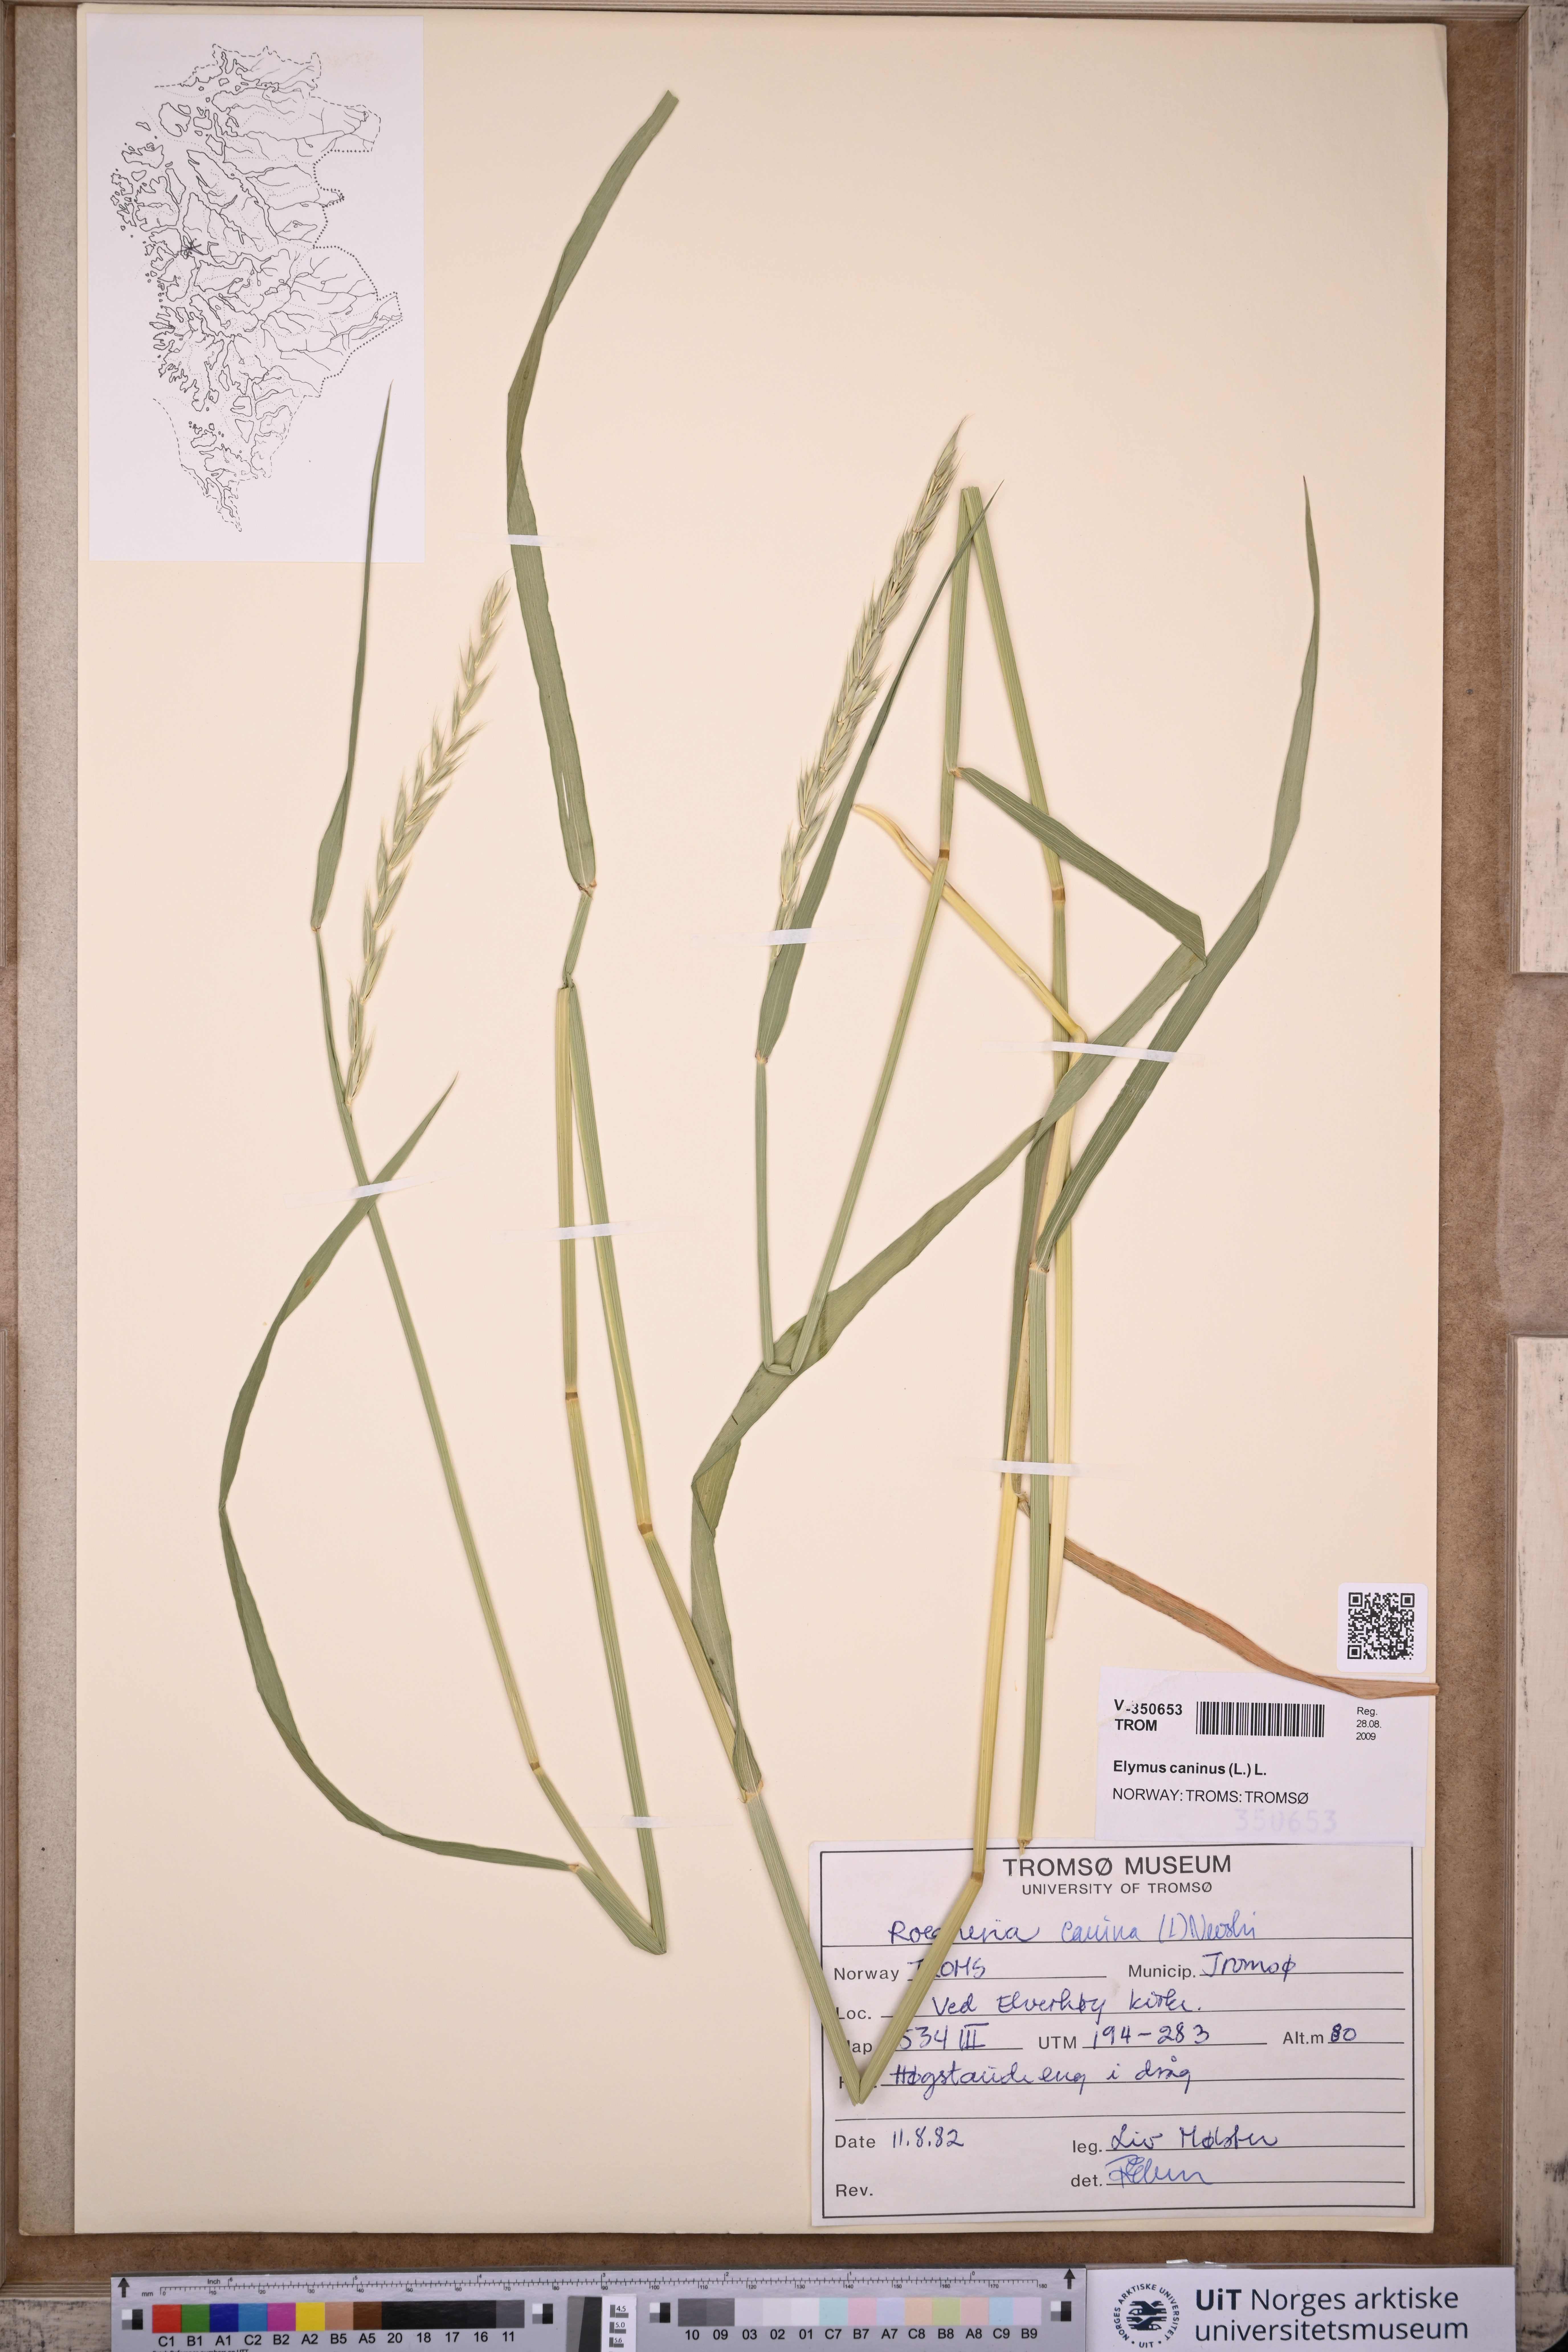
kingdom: Plantae
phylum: Tracheophyta
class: Liliopsida
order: Poales
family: Poaceae
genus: Elymus
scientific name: Elymus caninus
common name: Bearded couch
